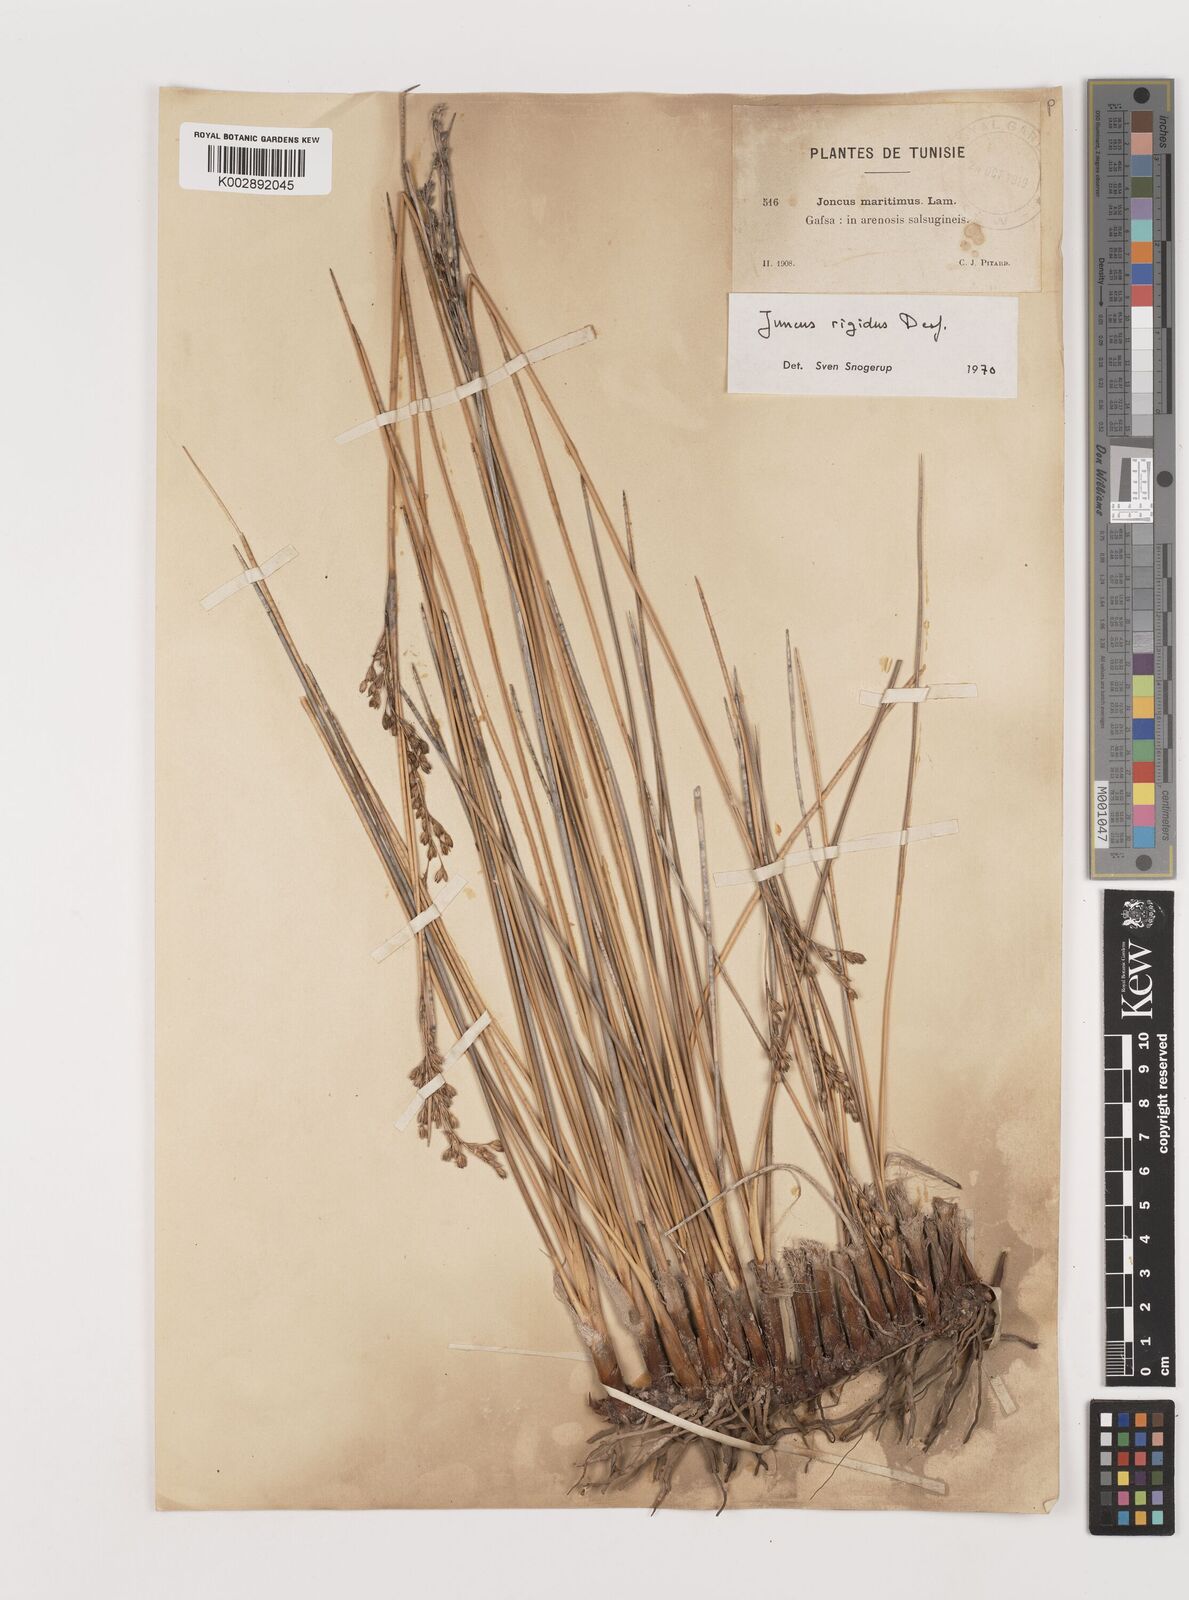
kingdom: Plantae
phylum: Tracheophyta
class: Liliopsida
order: Poales
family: Juncaceae
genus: Juncus
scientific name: Juncus rigidus
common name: Hard sea rush
